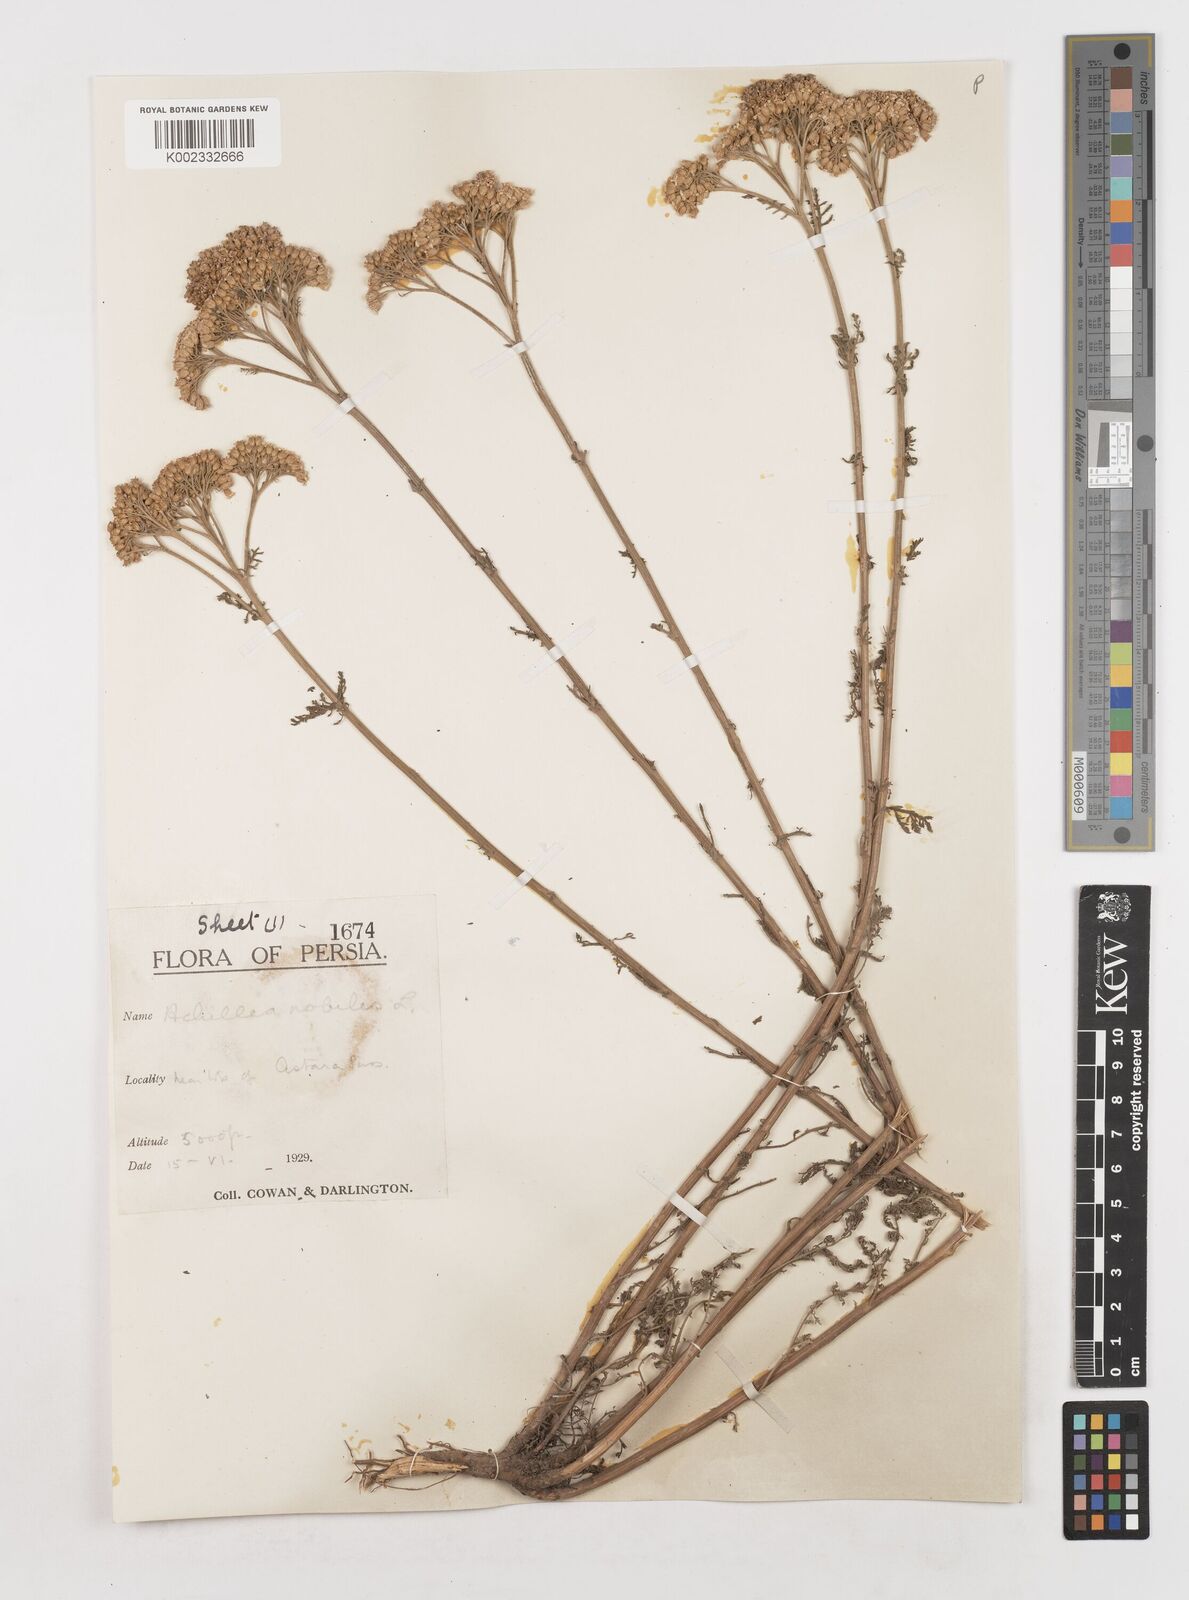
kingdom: Plantae
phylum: Tracheophyta
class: Magnoliopsida
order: Asterales
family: Asteraceae
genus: Achillea
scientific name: Achillea nobilis
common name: Noble yarrow
